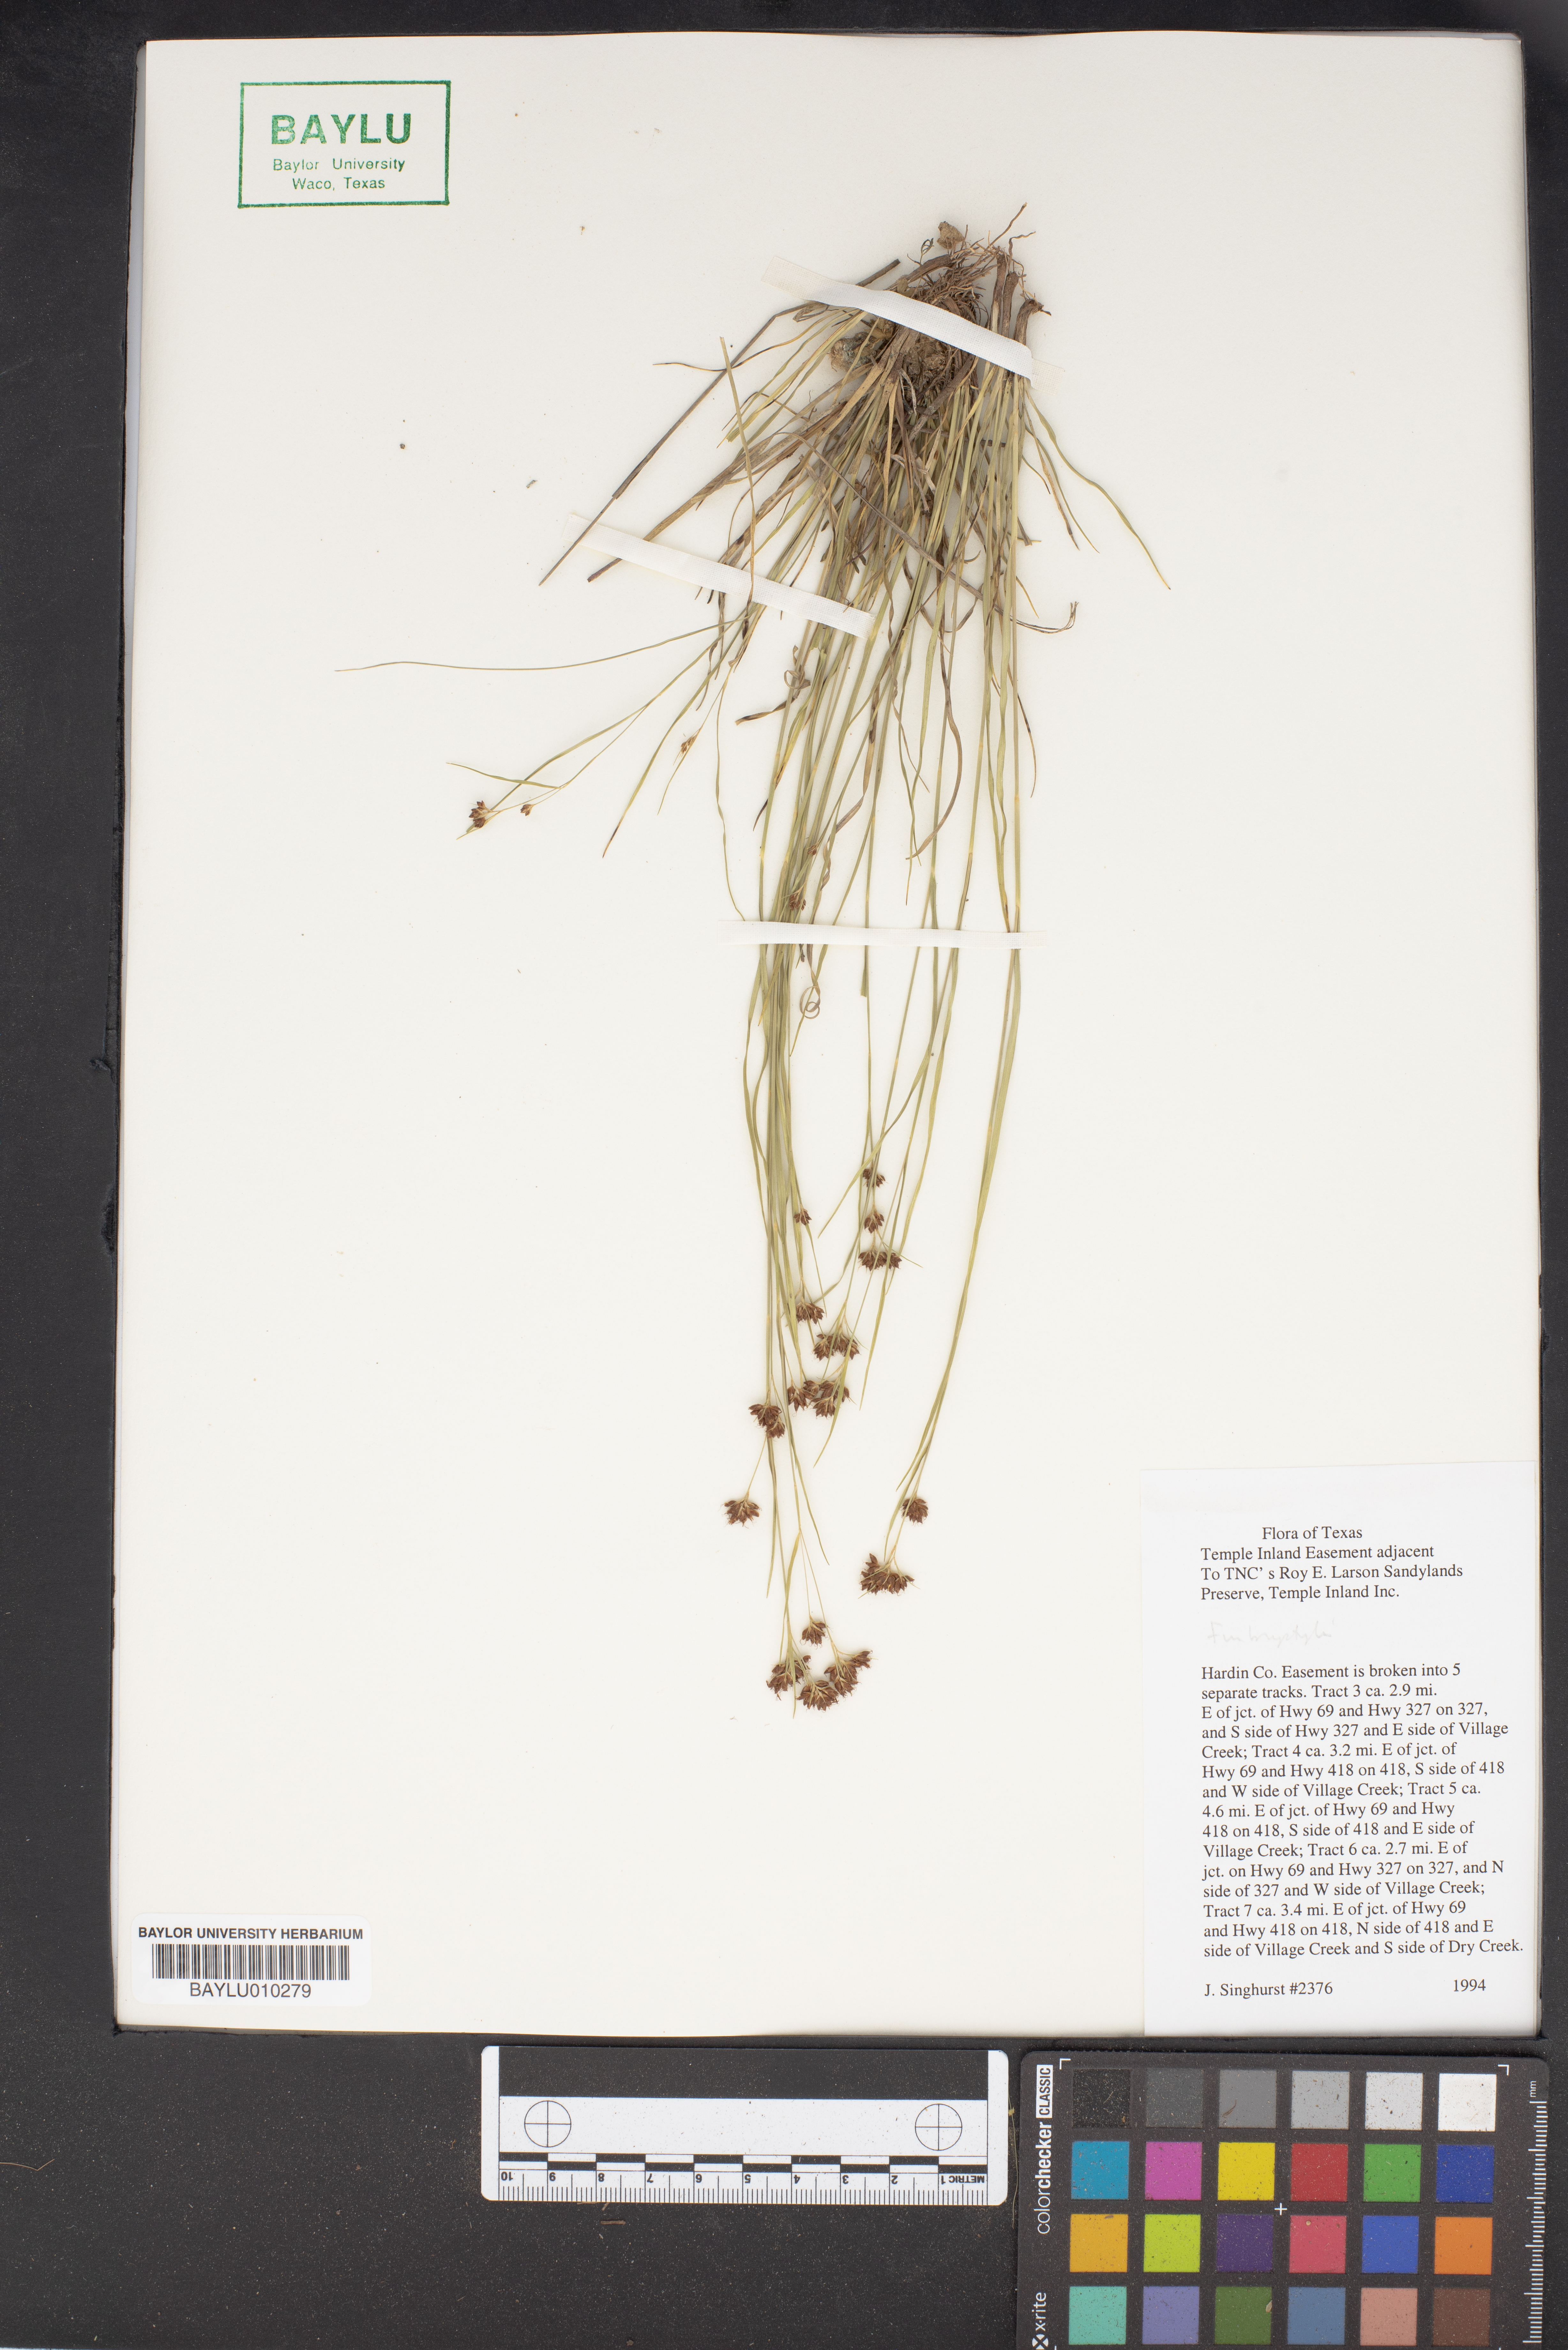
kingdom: Plantae
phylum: Tracheophyta
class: Liliopsida
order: Poales
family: Cyperaceae
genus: Fimbristylis
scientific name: Fimbristylis
